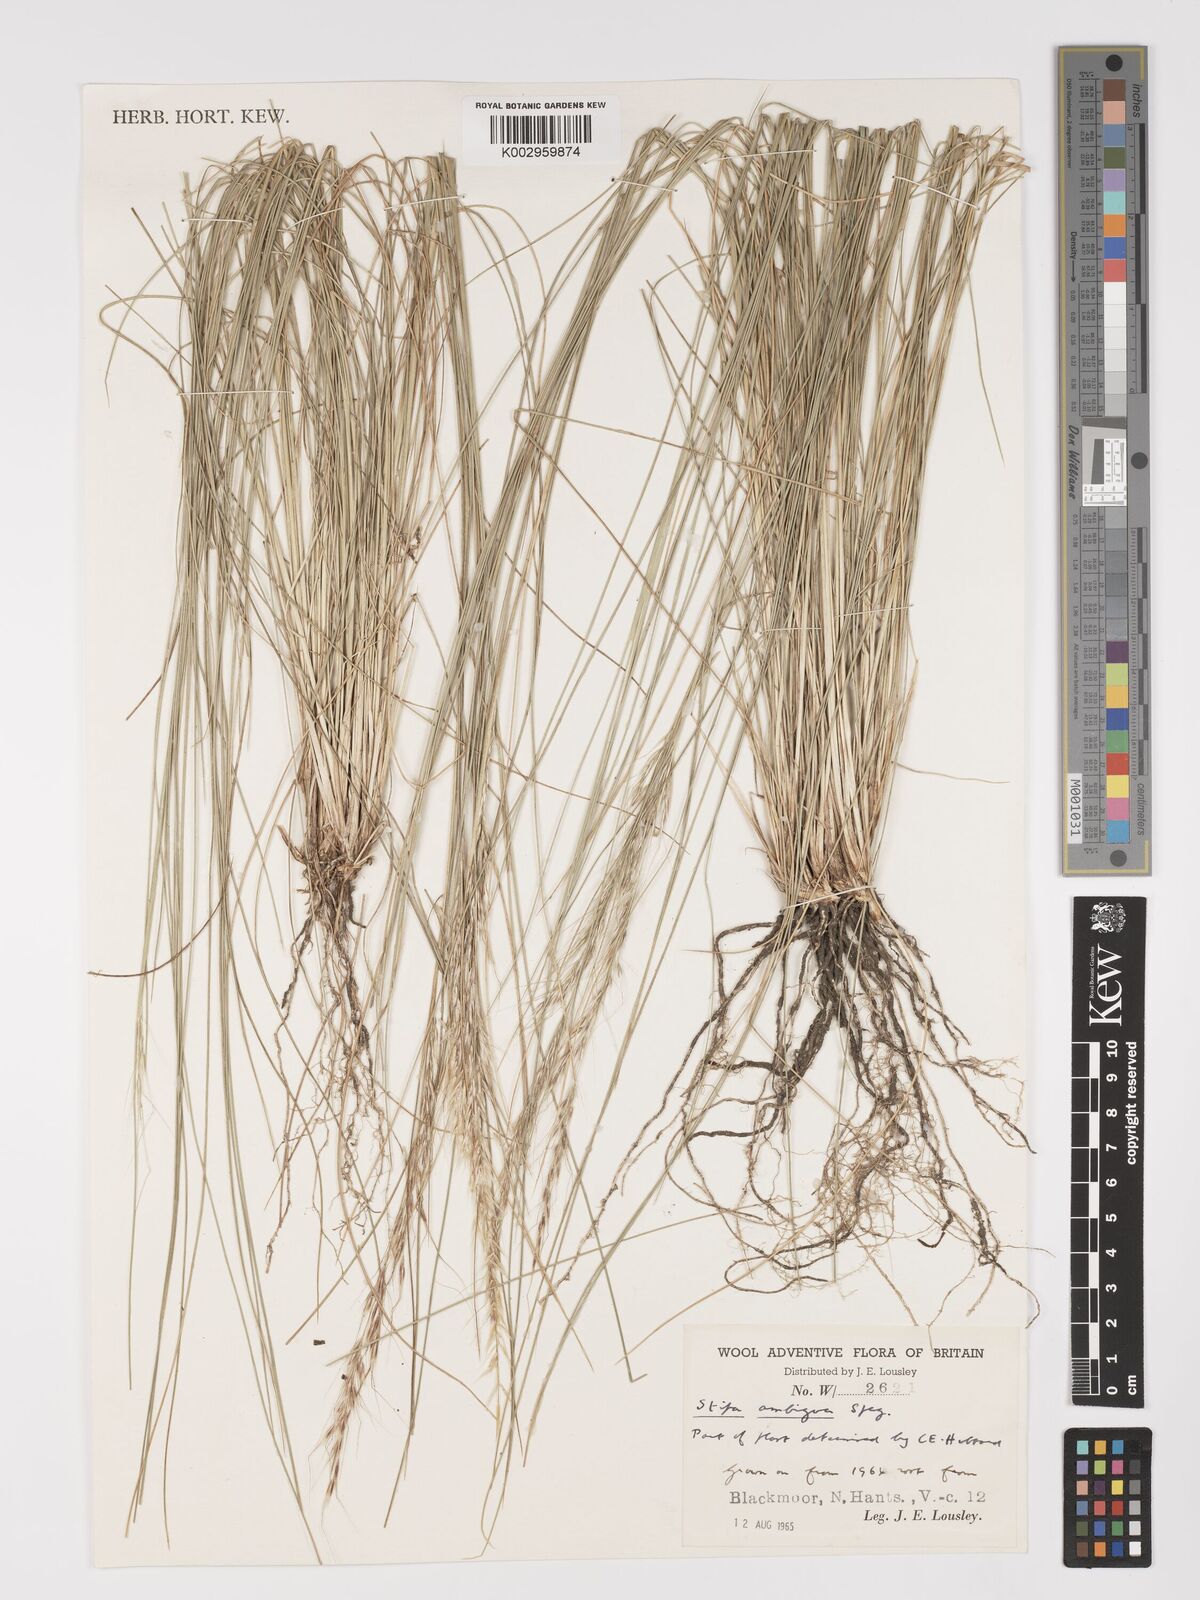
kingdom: Plantae
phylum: Tracheophyta
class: Liliopsida
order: Poales
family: Poaceae
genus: Amelichloa
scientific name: Amelichloa ambigua
